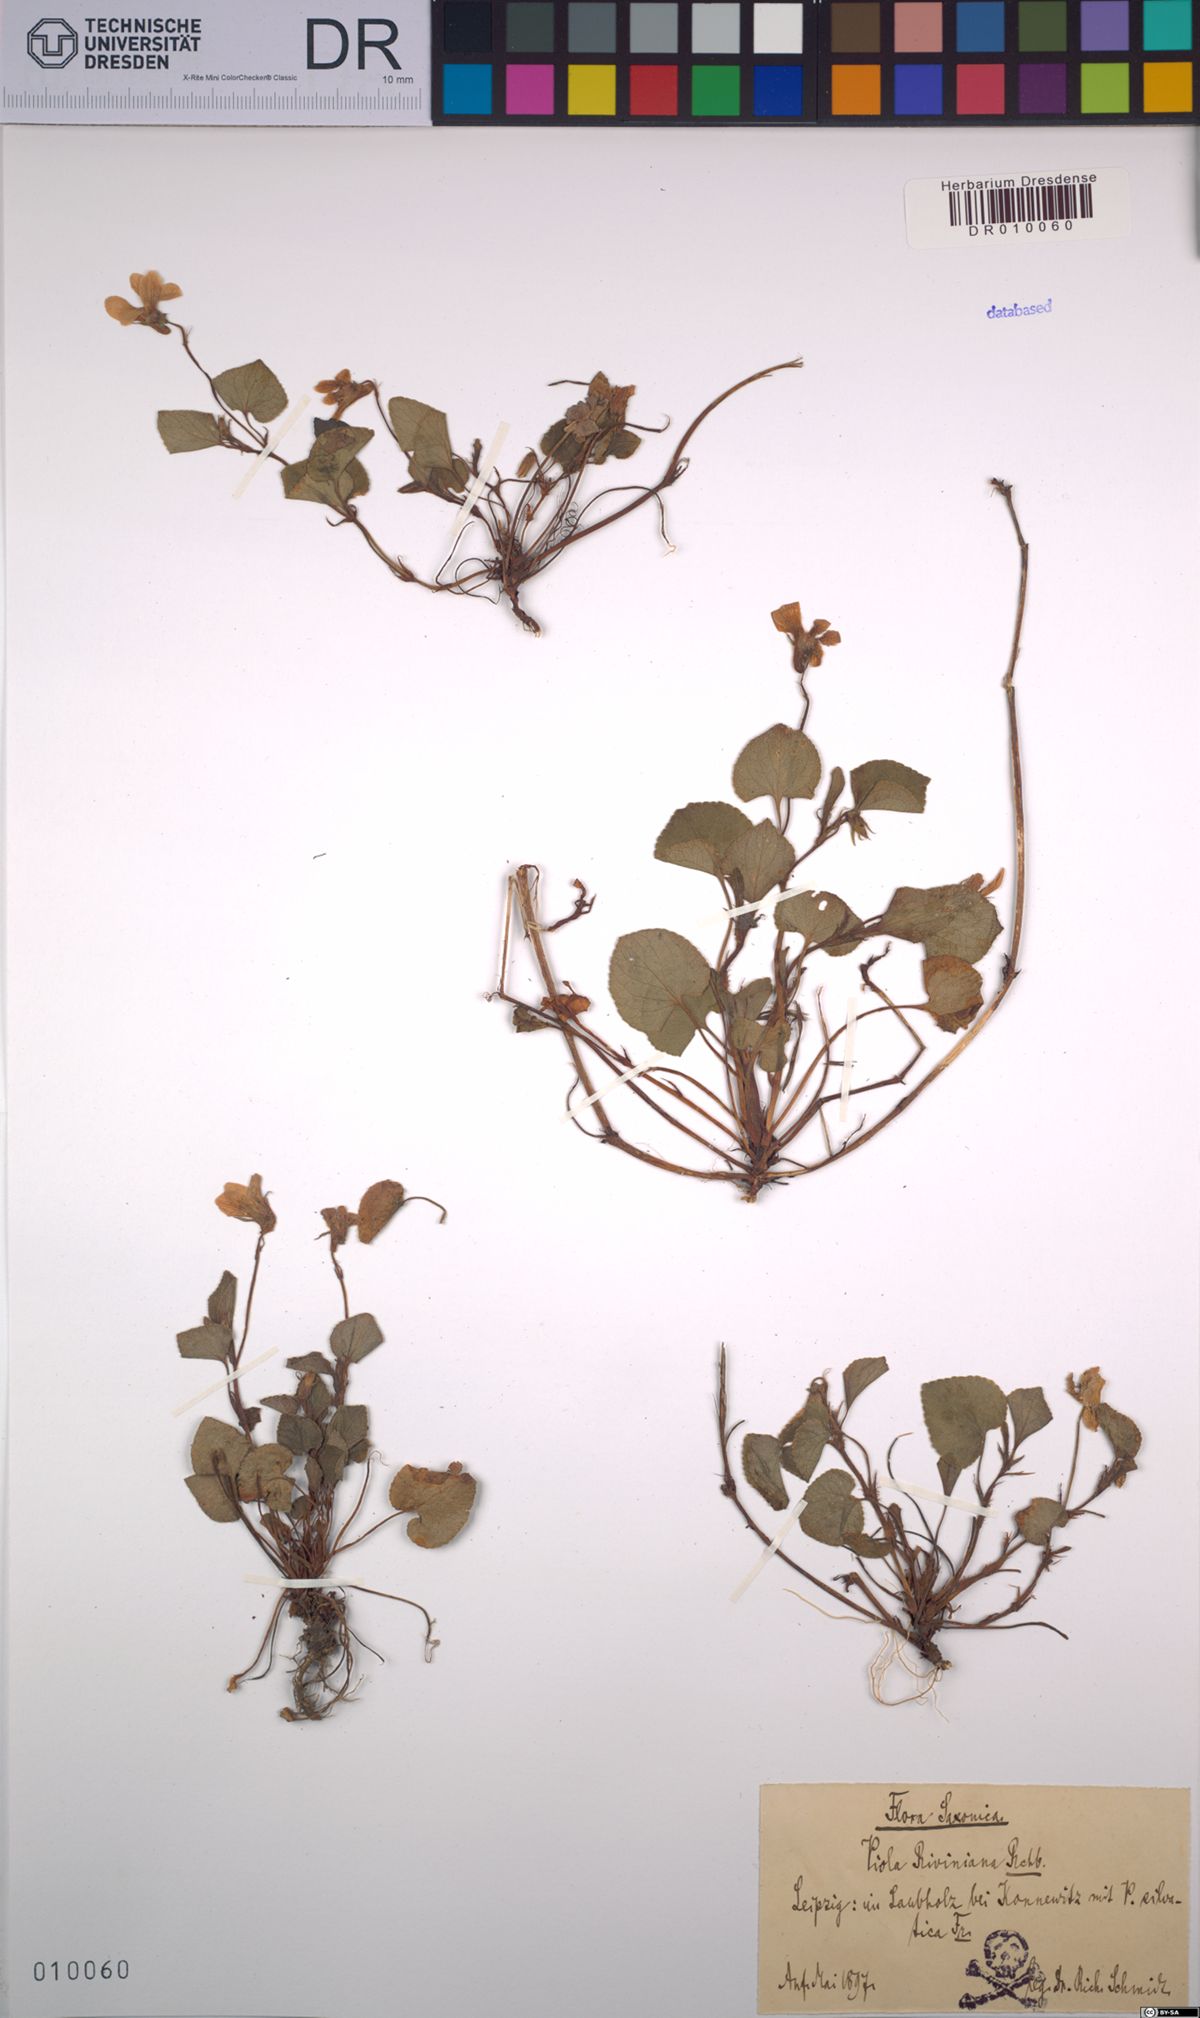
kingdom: Plantae
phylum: Tracheophyta
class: Magnoliopsida
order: Malpighiales
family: Violaceae
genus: Viola
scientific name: Viola riviniana
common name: Common dog-violet
